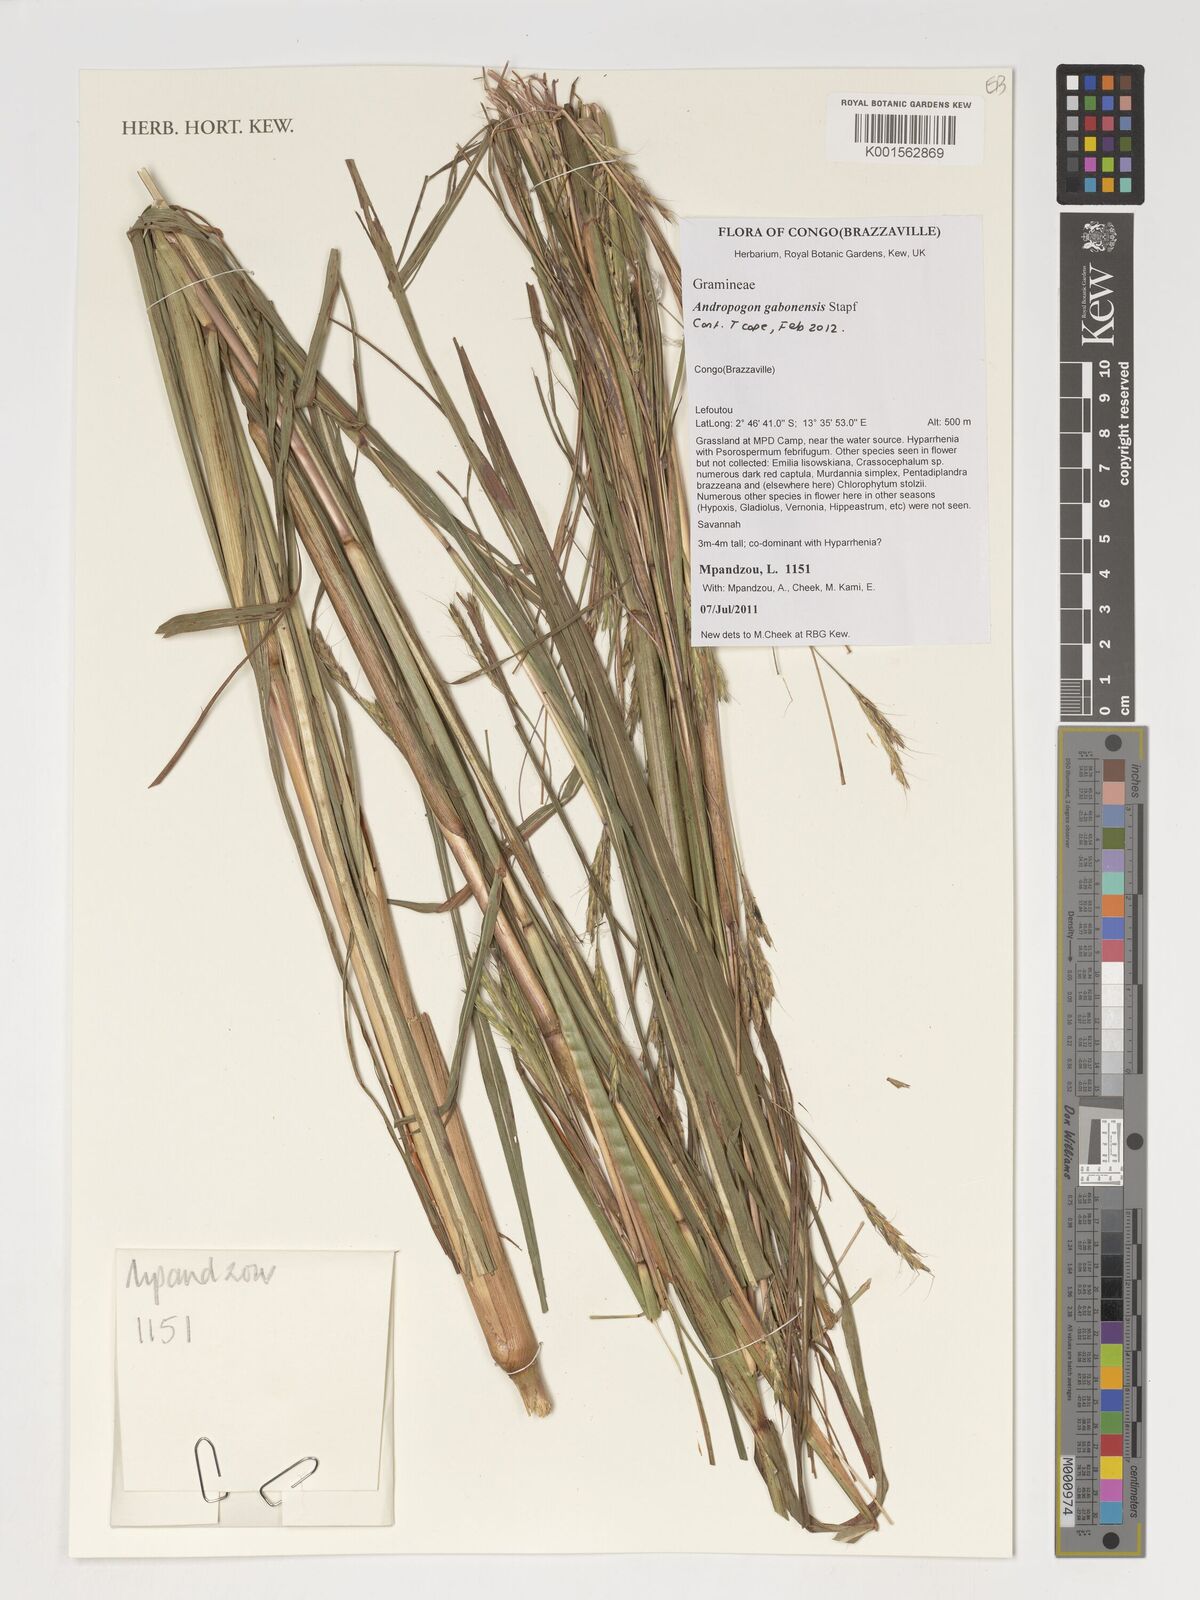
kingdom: Plantae
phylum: Tracheophyta
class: Liliopsida
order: Poales
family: Poaceae
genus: Andropogon
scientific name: Andropogon gabonensis
